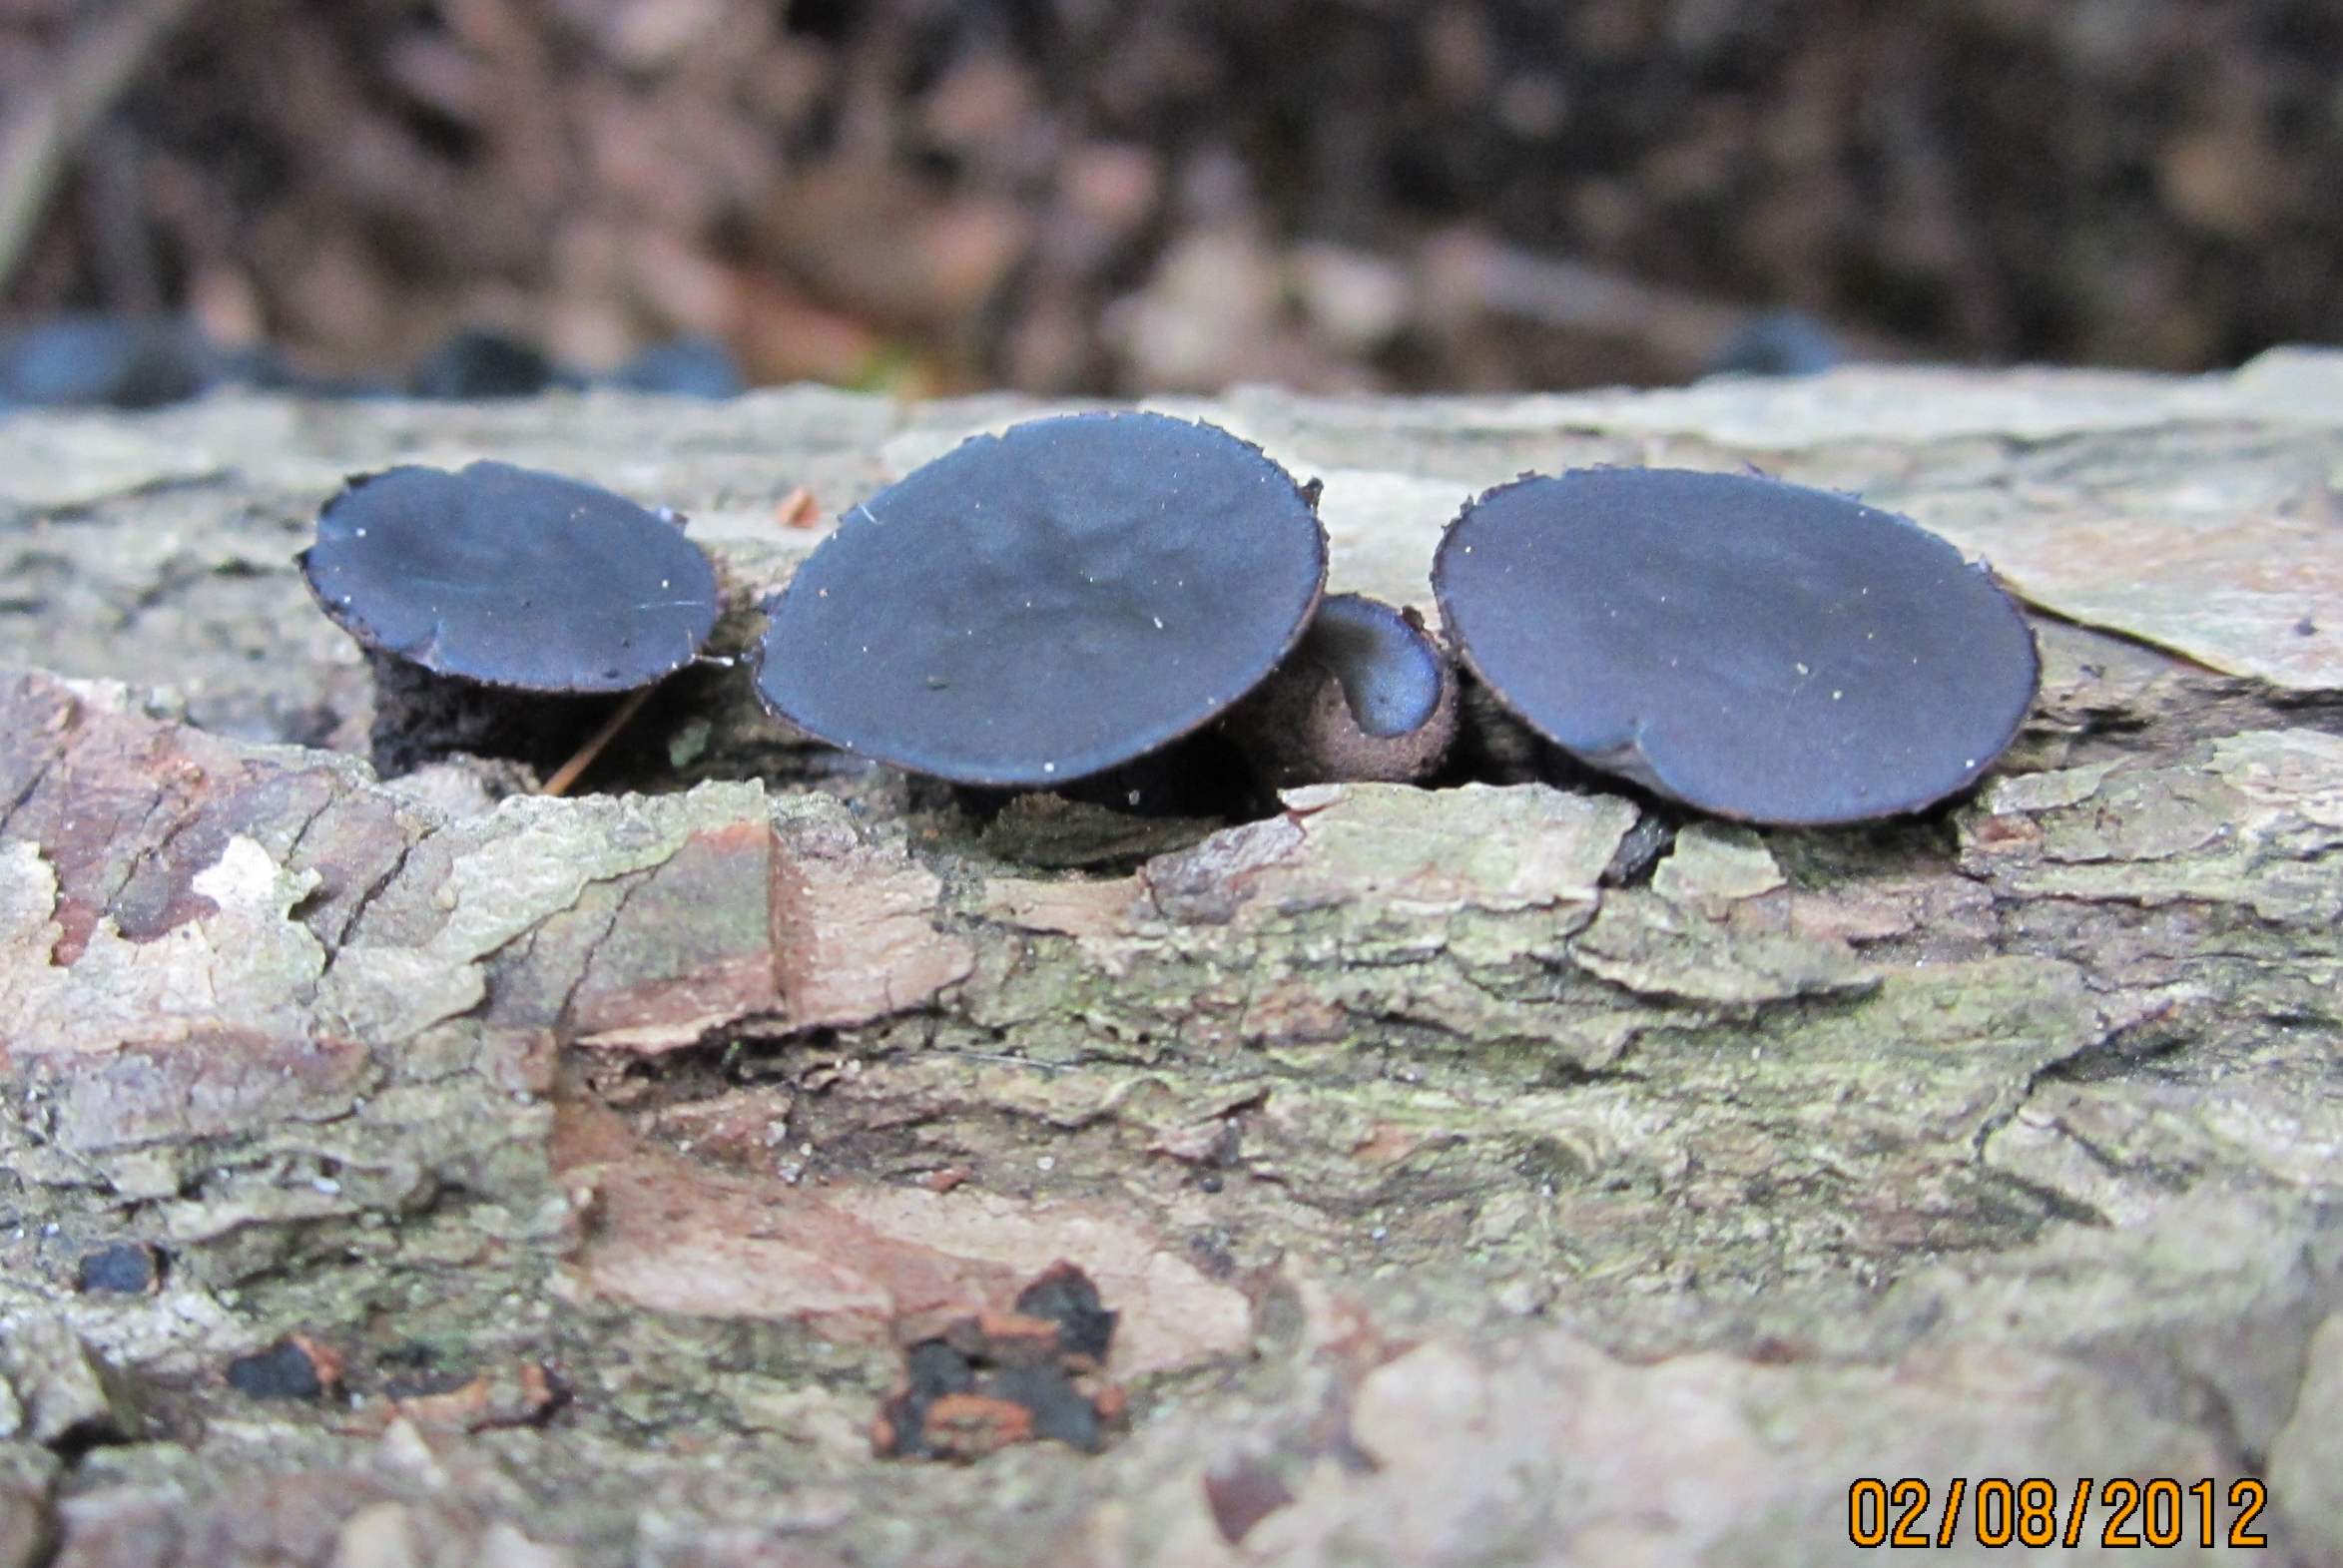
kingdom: Fungi
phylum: Ascomycota
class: Leotiomycetes
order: Phacidiales
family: Phacidiaceae
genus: Bulgaria
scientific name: Bulgaria inquinans
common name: afsmittende topsvamp
